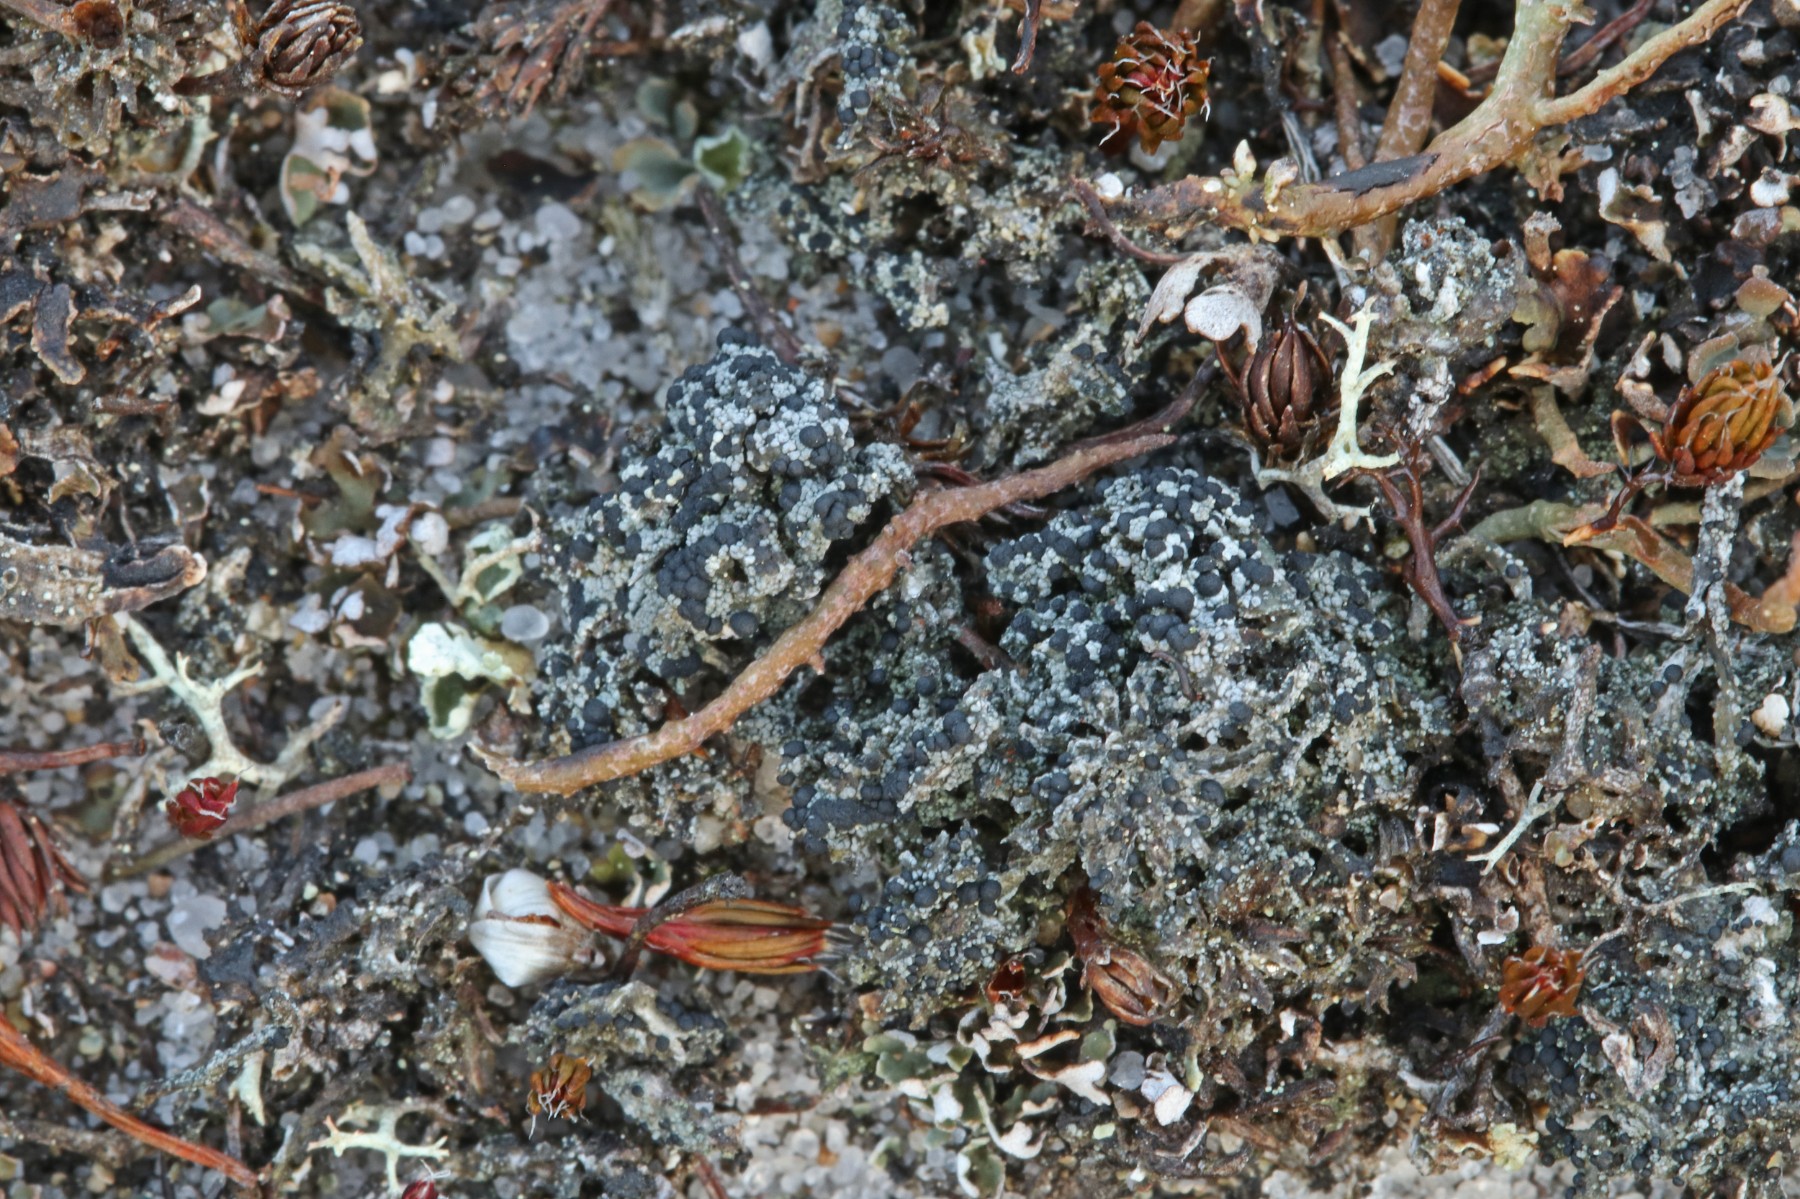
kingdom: Fungi
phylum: Ascomycota
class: Lecanoromycetes
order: Lecanorales
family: Byssolomataceae
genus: Micarea
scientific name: Micarea lignaria
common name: tørve-knaplav
